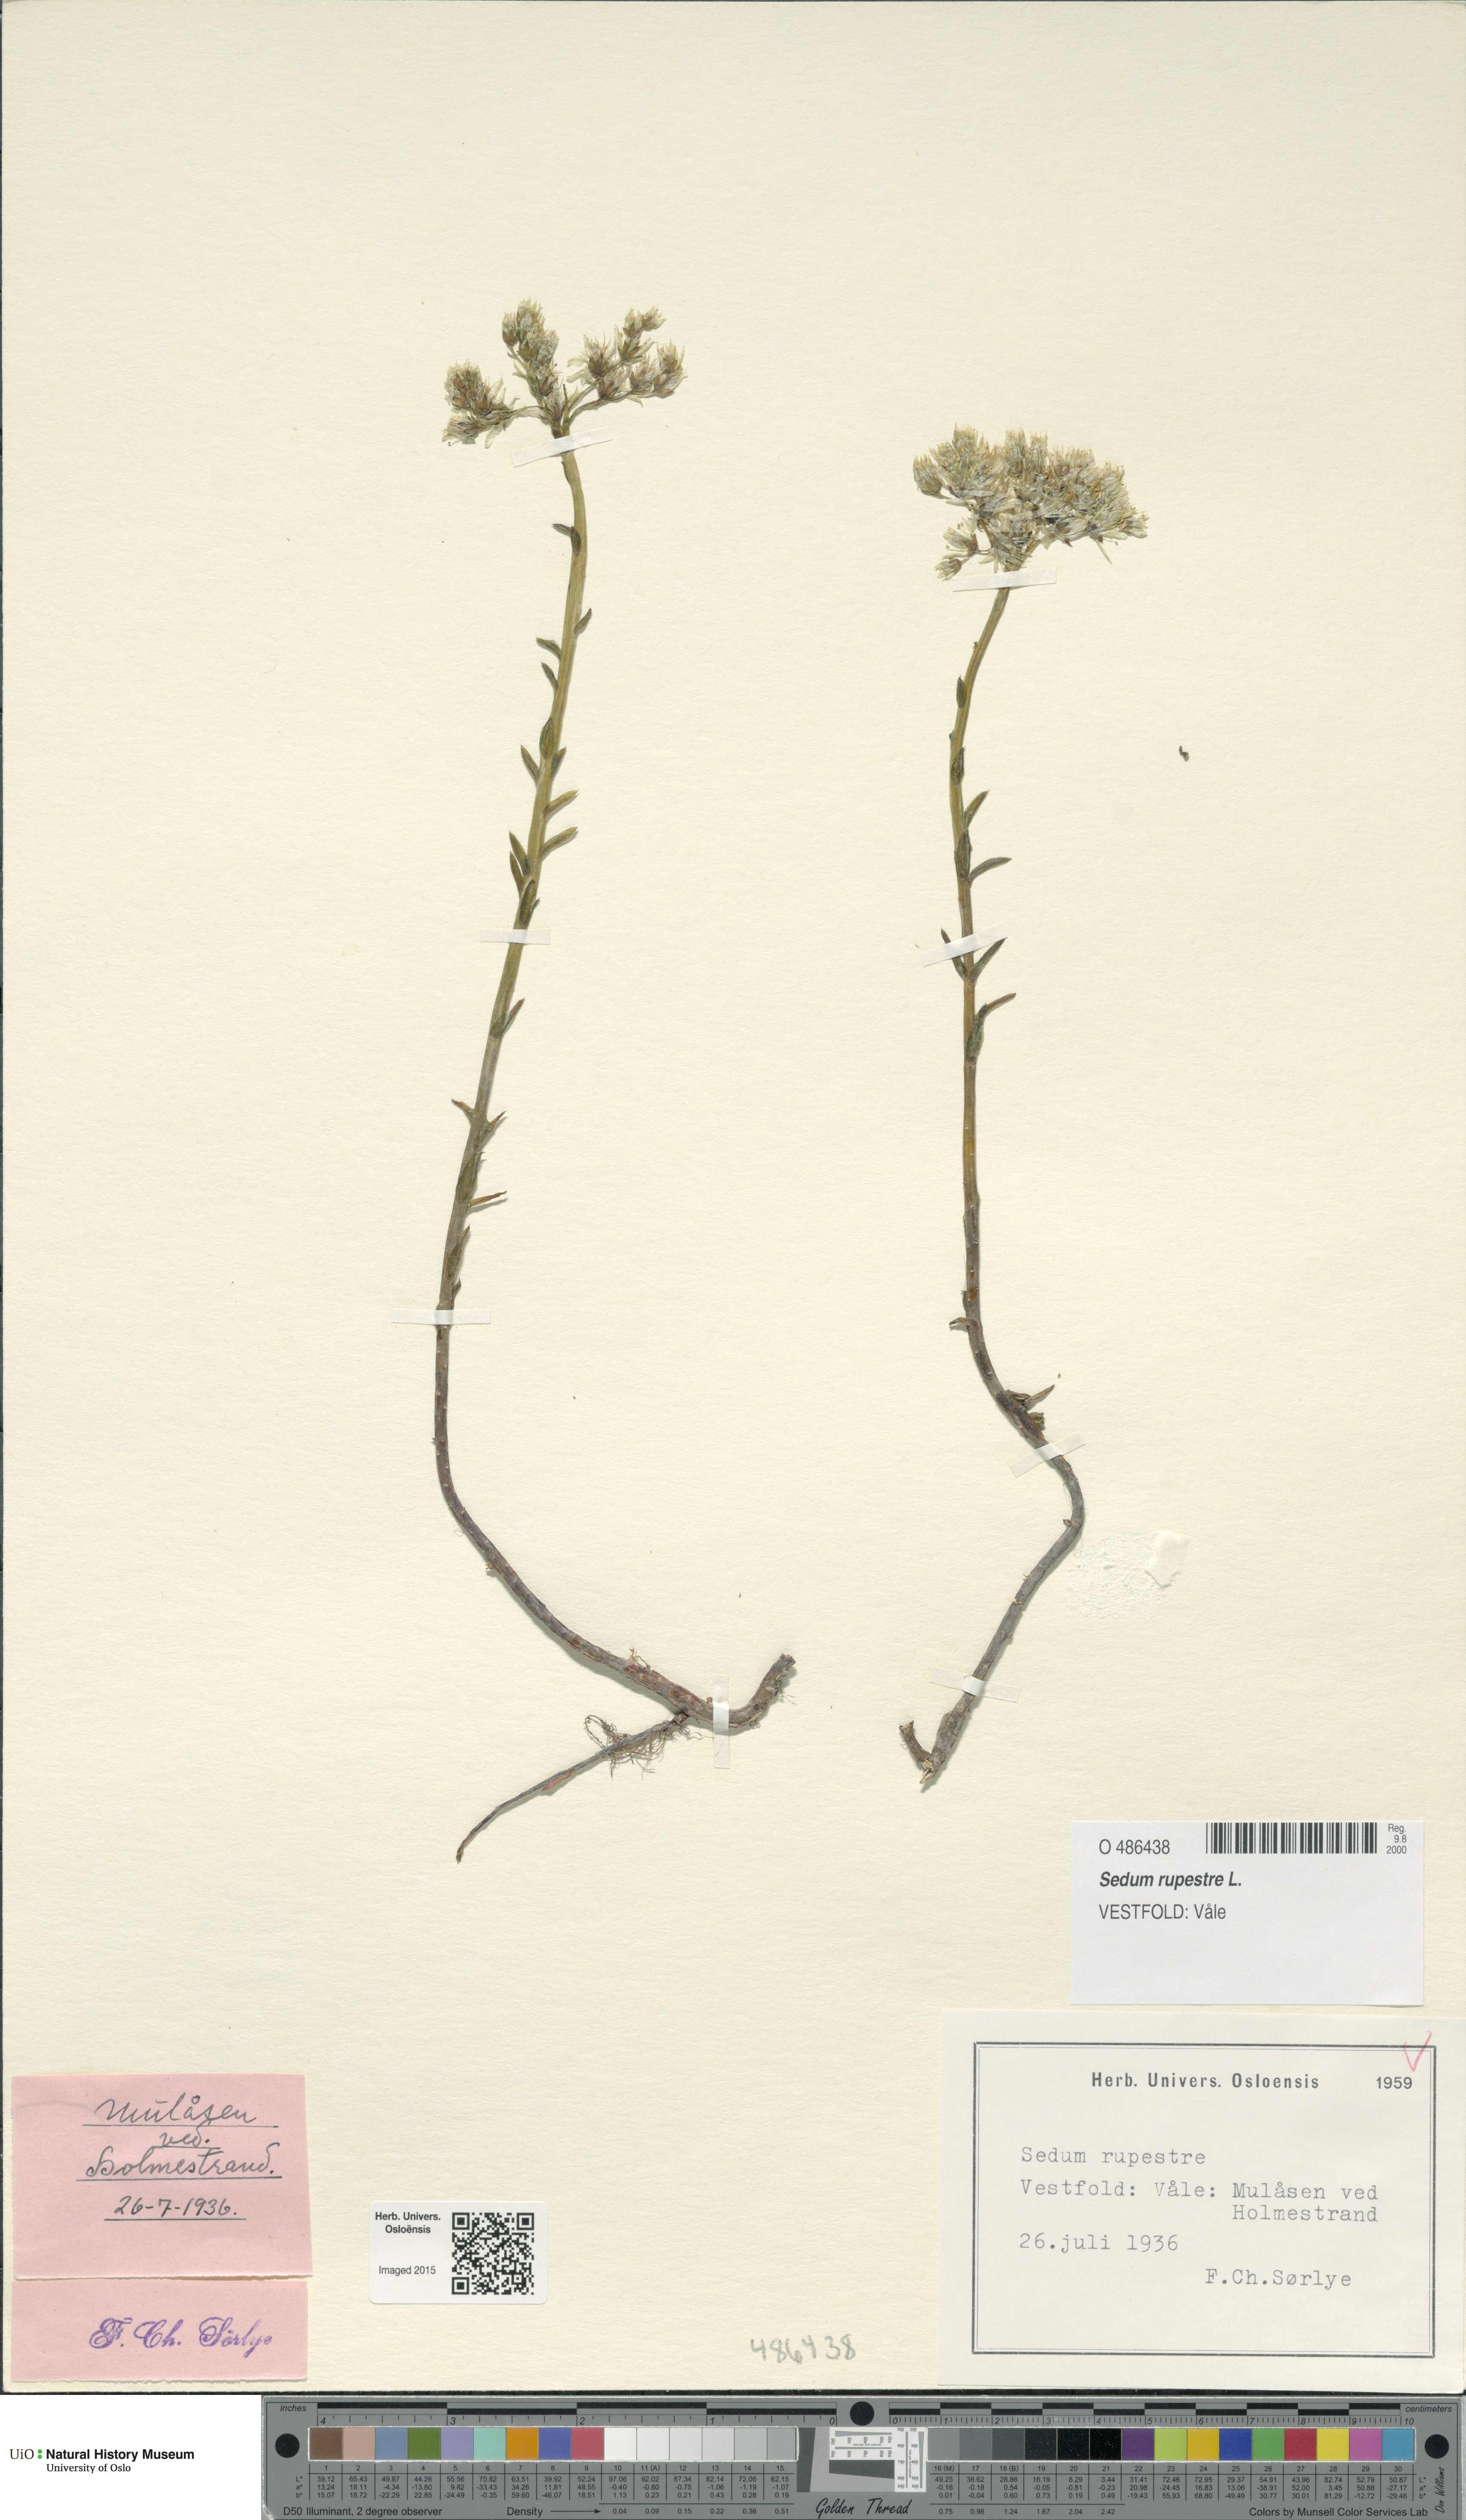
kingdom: Plantae
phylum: Tracheophyta
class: Magnoliopsida
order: Saxifragales
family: Crassulaceae
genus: Petrosedum
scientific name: Petrosedum rupestre
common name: Jenny's stonecrop
